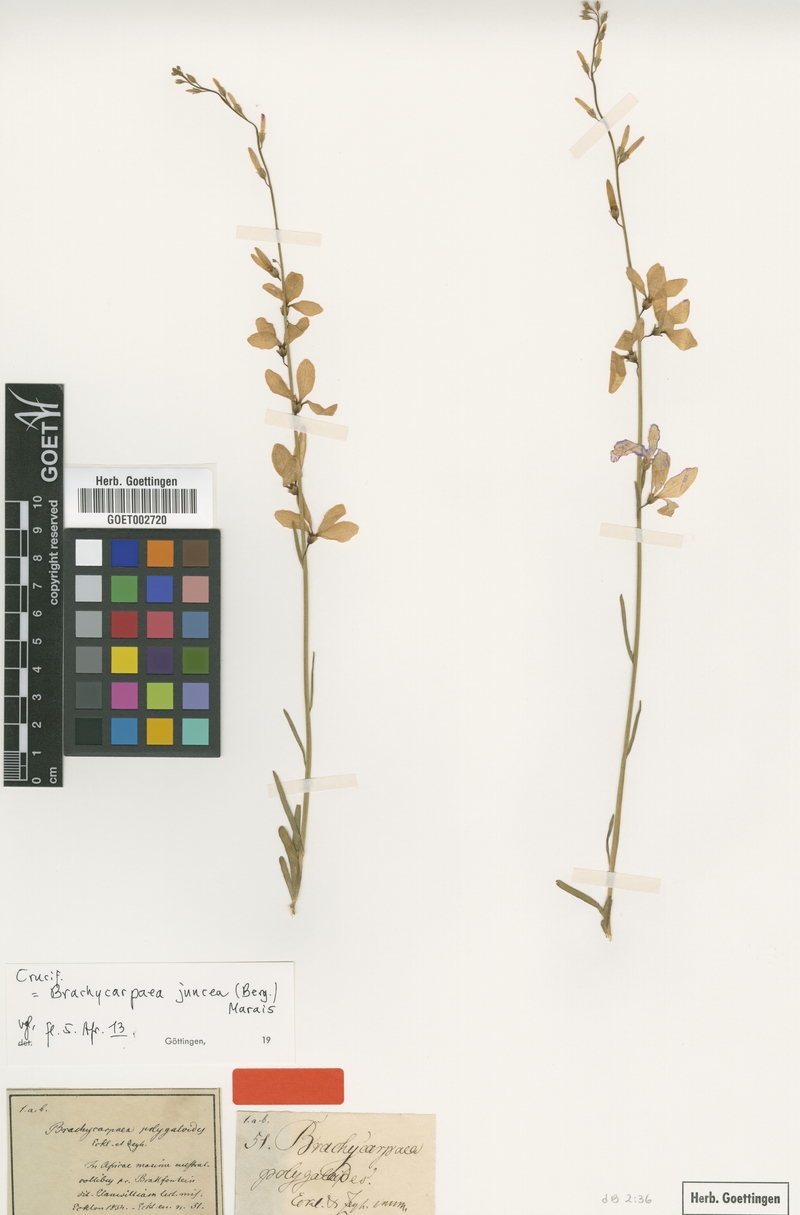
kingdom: Plantae
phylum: Tracheophyta
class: Magnoliopsida
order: Brassicales
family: Brassicaceae
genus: Heliophila
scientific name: Heliophila juncea
